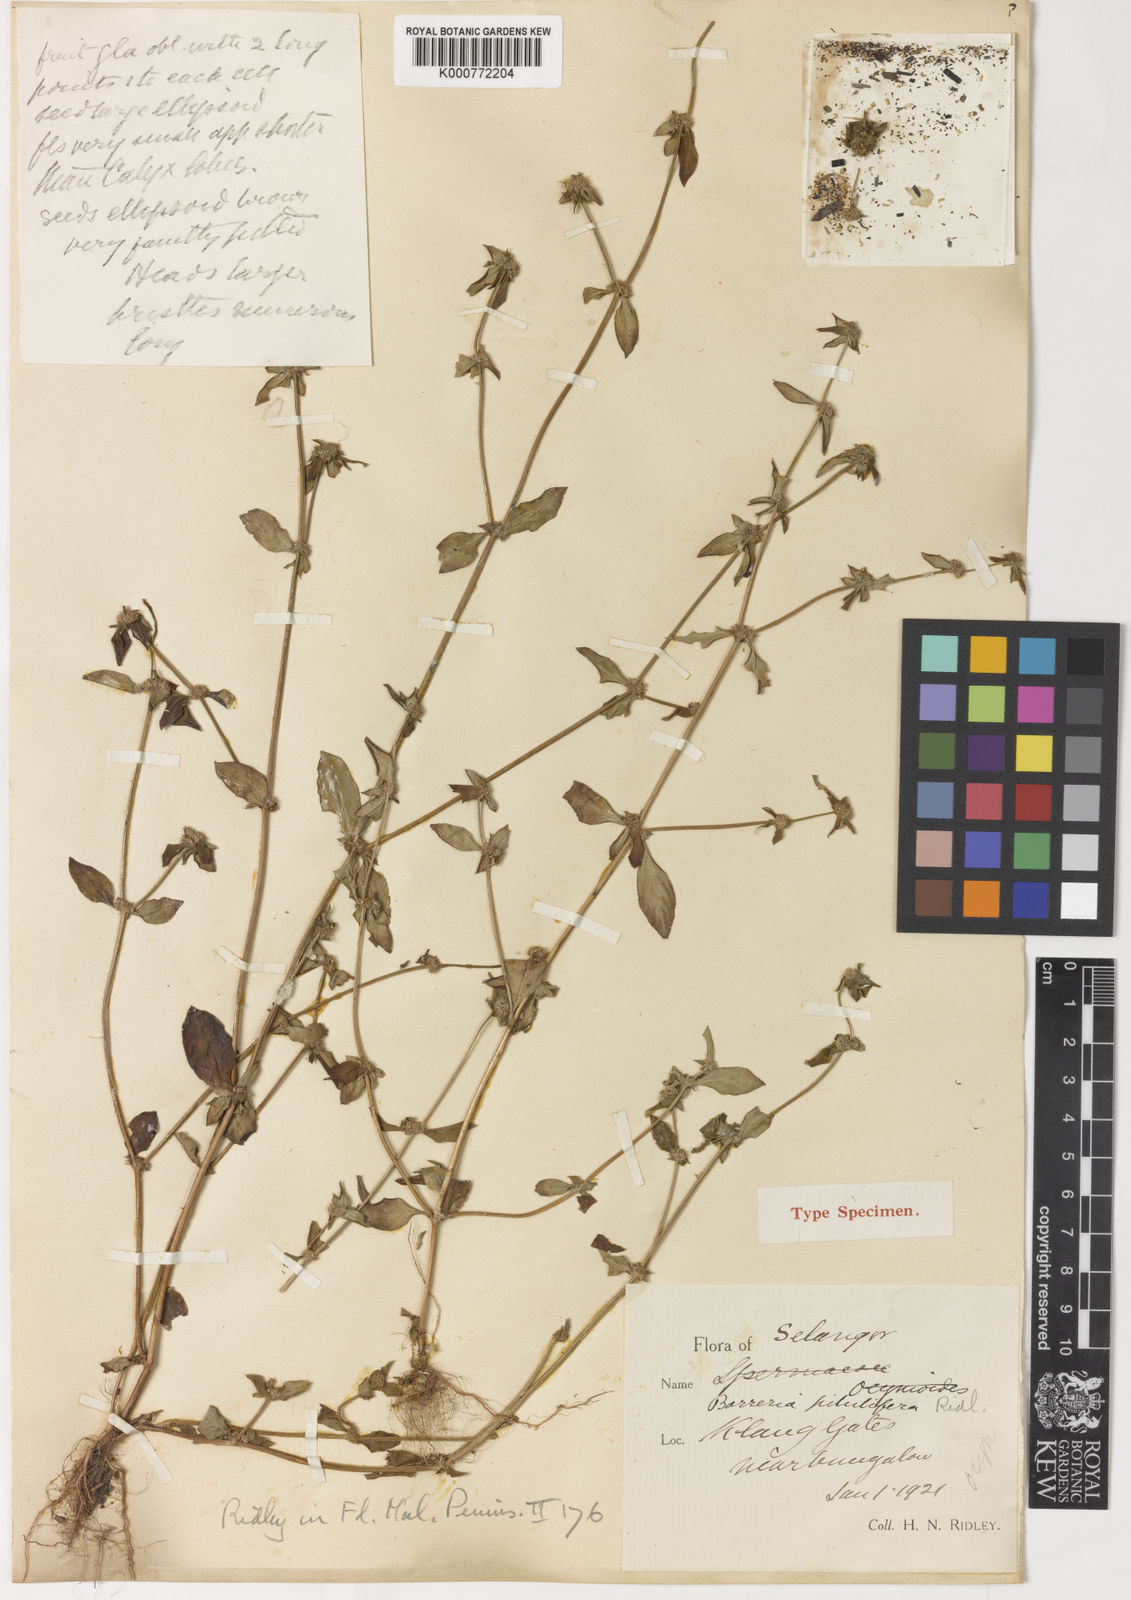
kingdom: Plantae
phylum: Tracheophyta
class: Magnoliopsida
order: Gentianales
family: Rubiaceae
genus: Spermacoce
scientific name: Spermacoce pilulifera
